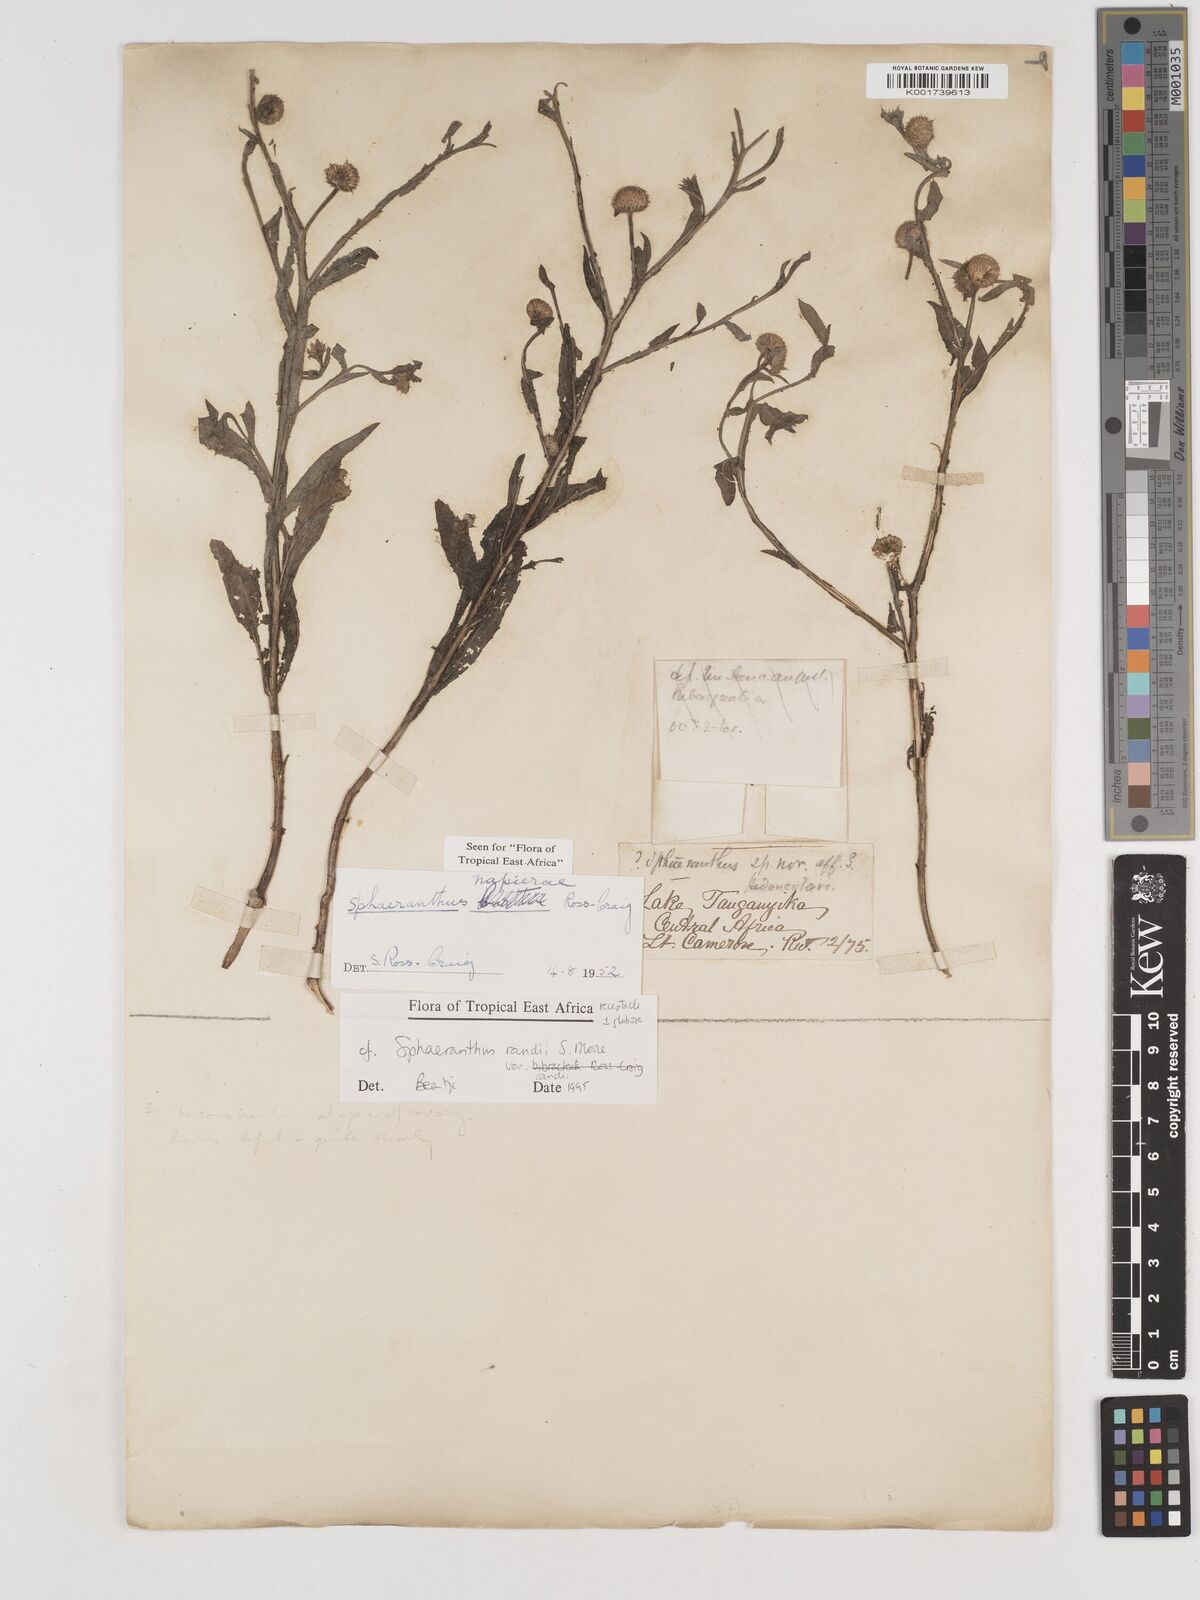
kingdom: Plantae
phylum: Tracheophyta
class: Magnoliopsida
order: Asterales
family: Asteraceae
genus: Sphaeranthus
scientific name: Sphaeranthus randii
